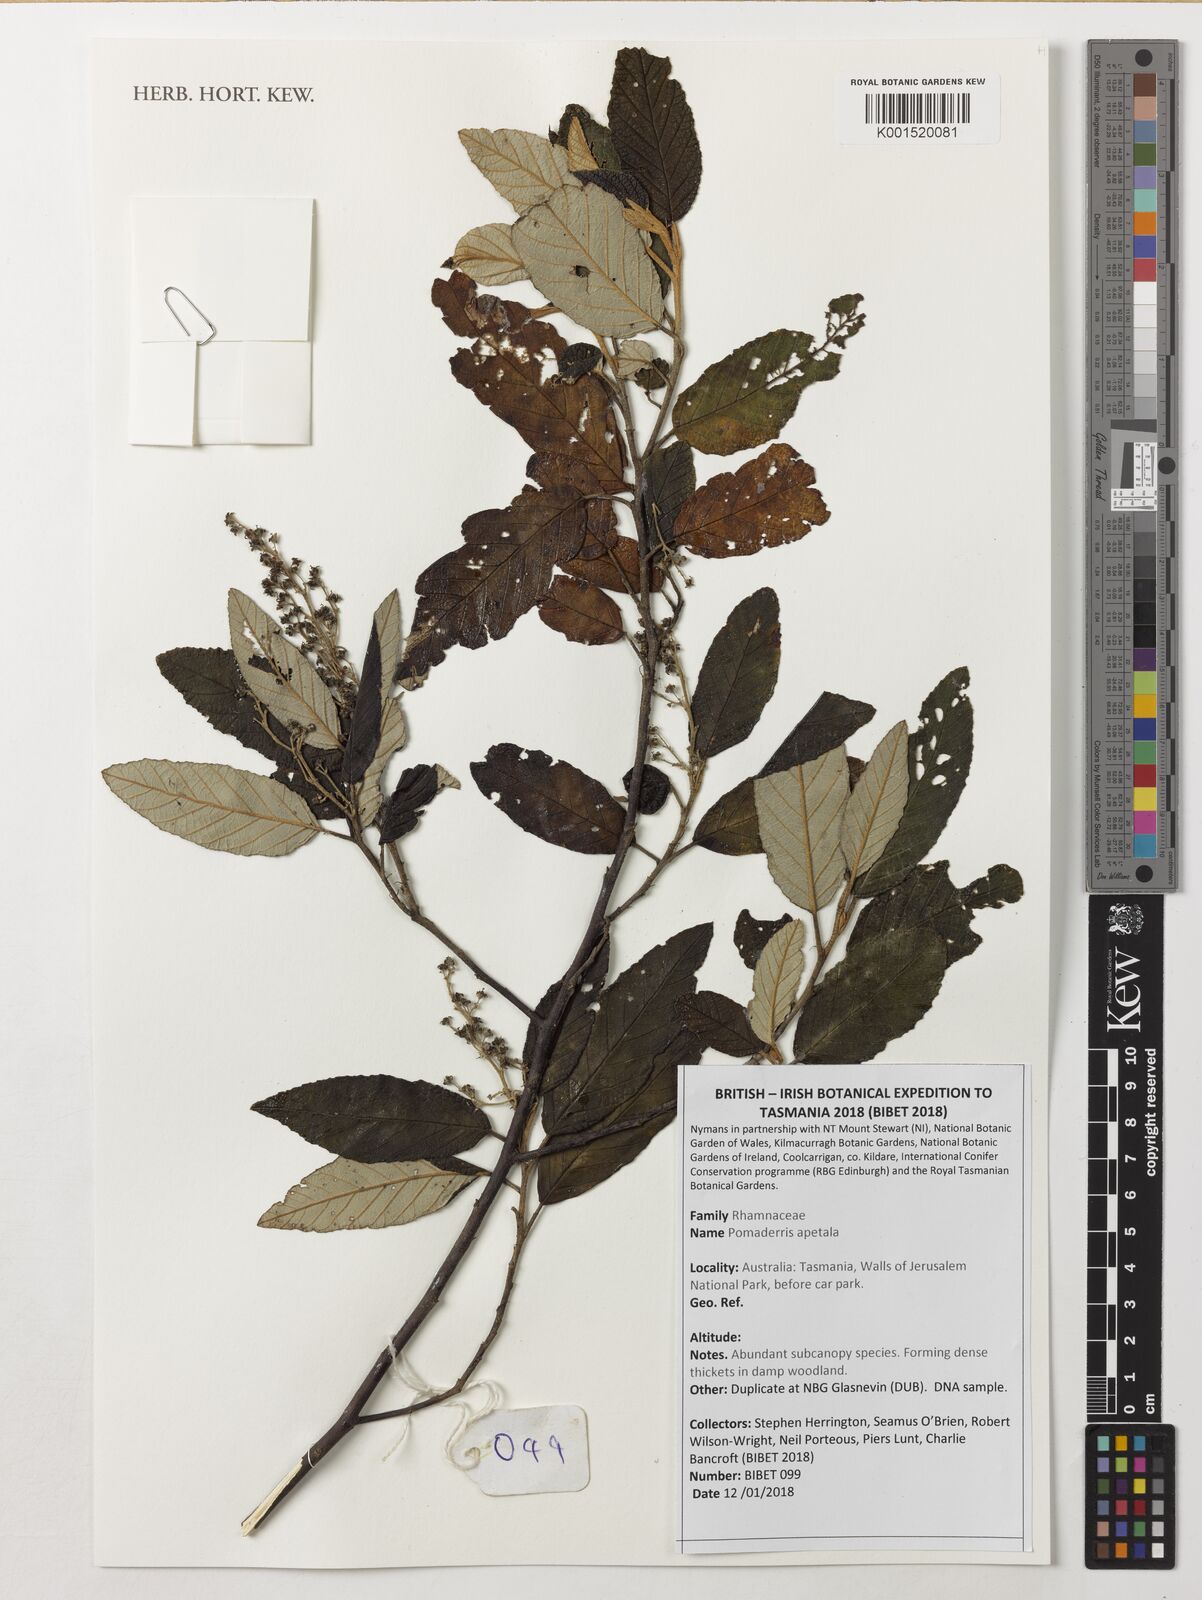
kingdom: Plantae
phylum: Tracheophyta
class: Magnoliopsida
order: Rosales
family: Rhamnaceae
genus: Pomaderris
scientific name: Pomaderris apetala
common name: Hazel pomaderris
